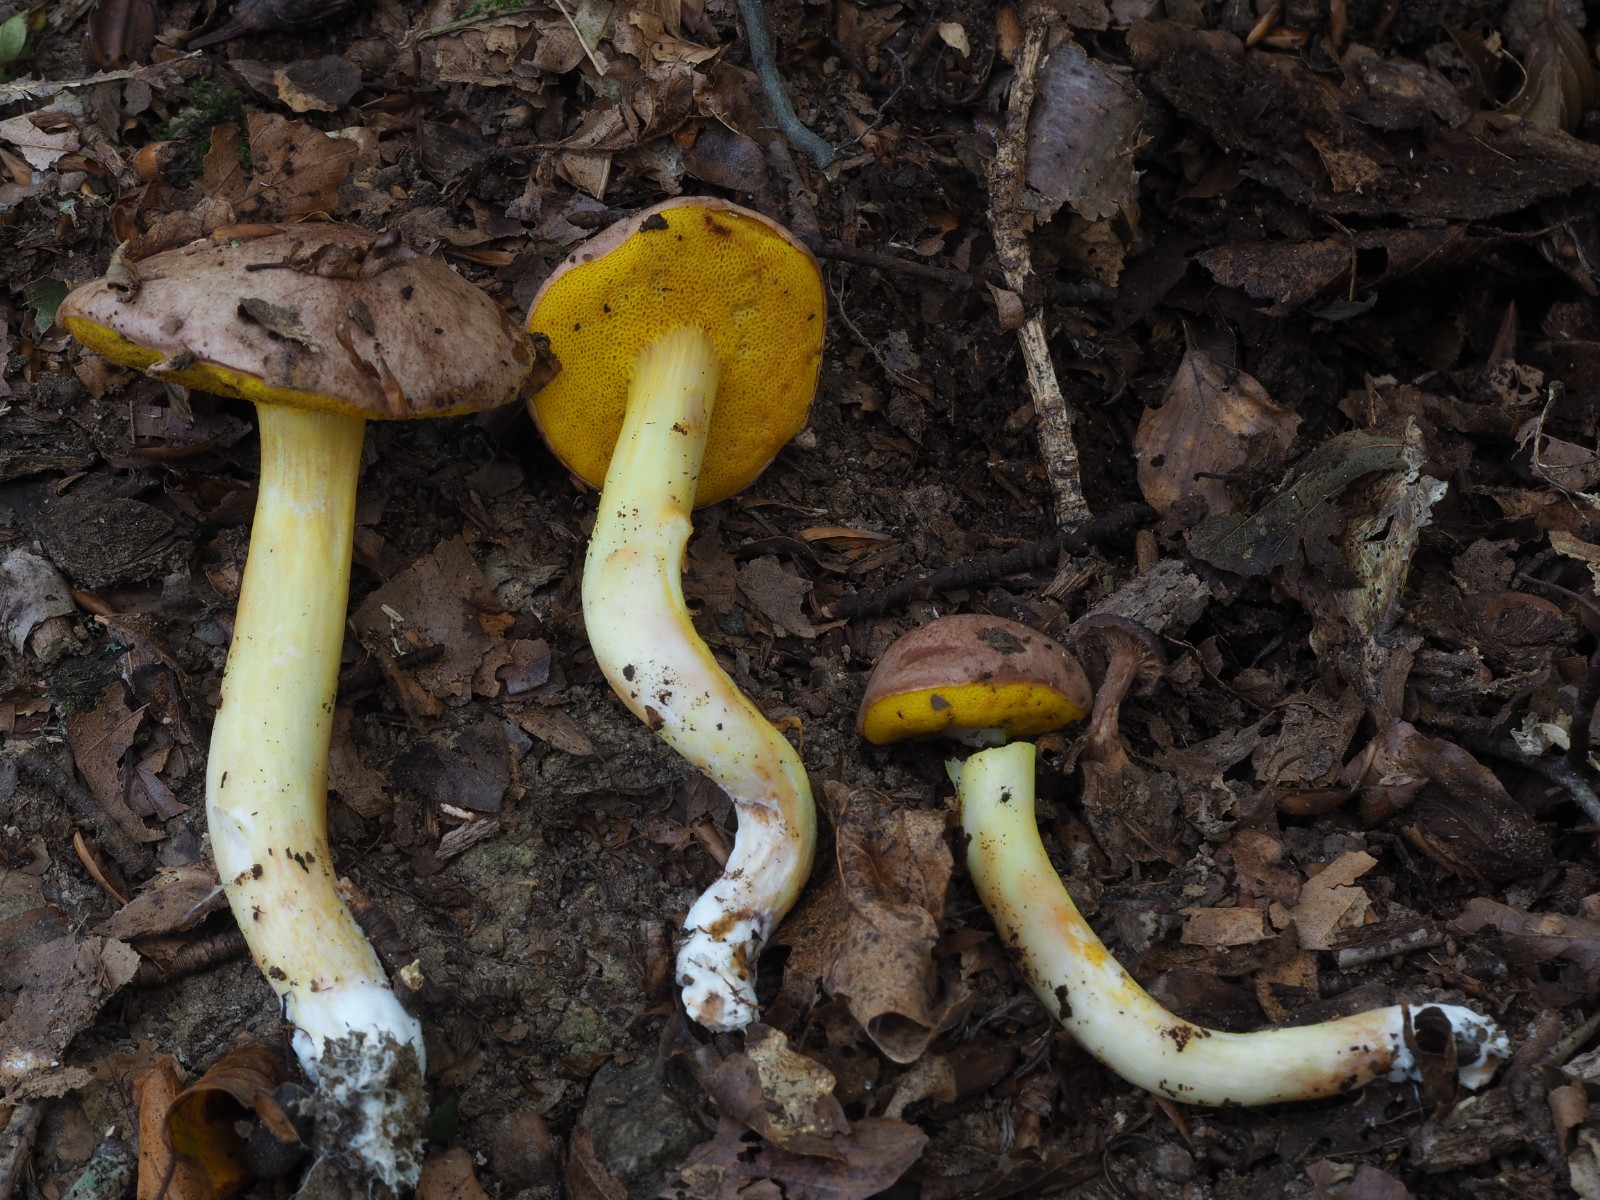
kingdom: Fungi
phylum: Basidiomycota
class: Agaricomycetes
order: Boletales
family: Boletaceae
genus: Aureoboletus
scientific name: Aureoboletus gentilis
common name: guldrørhat
